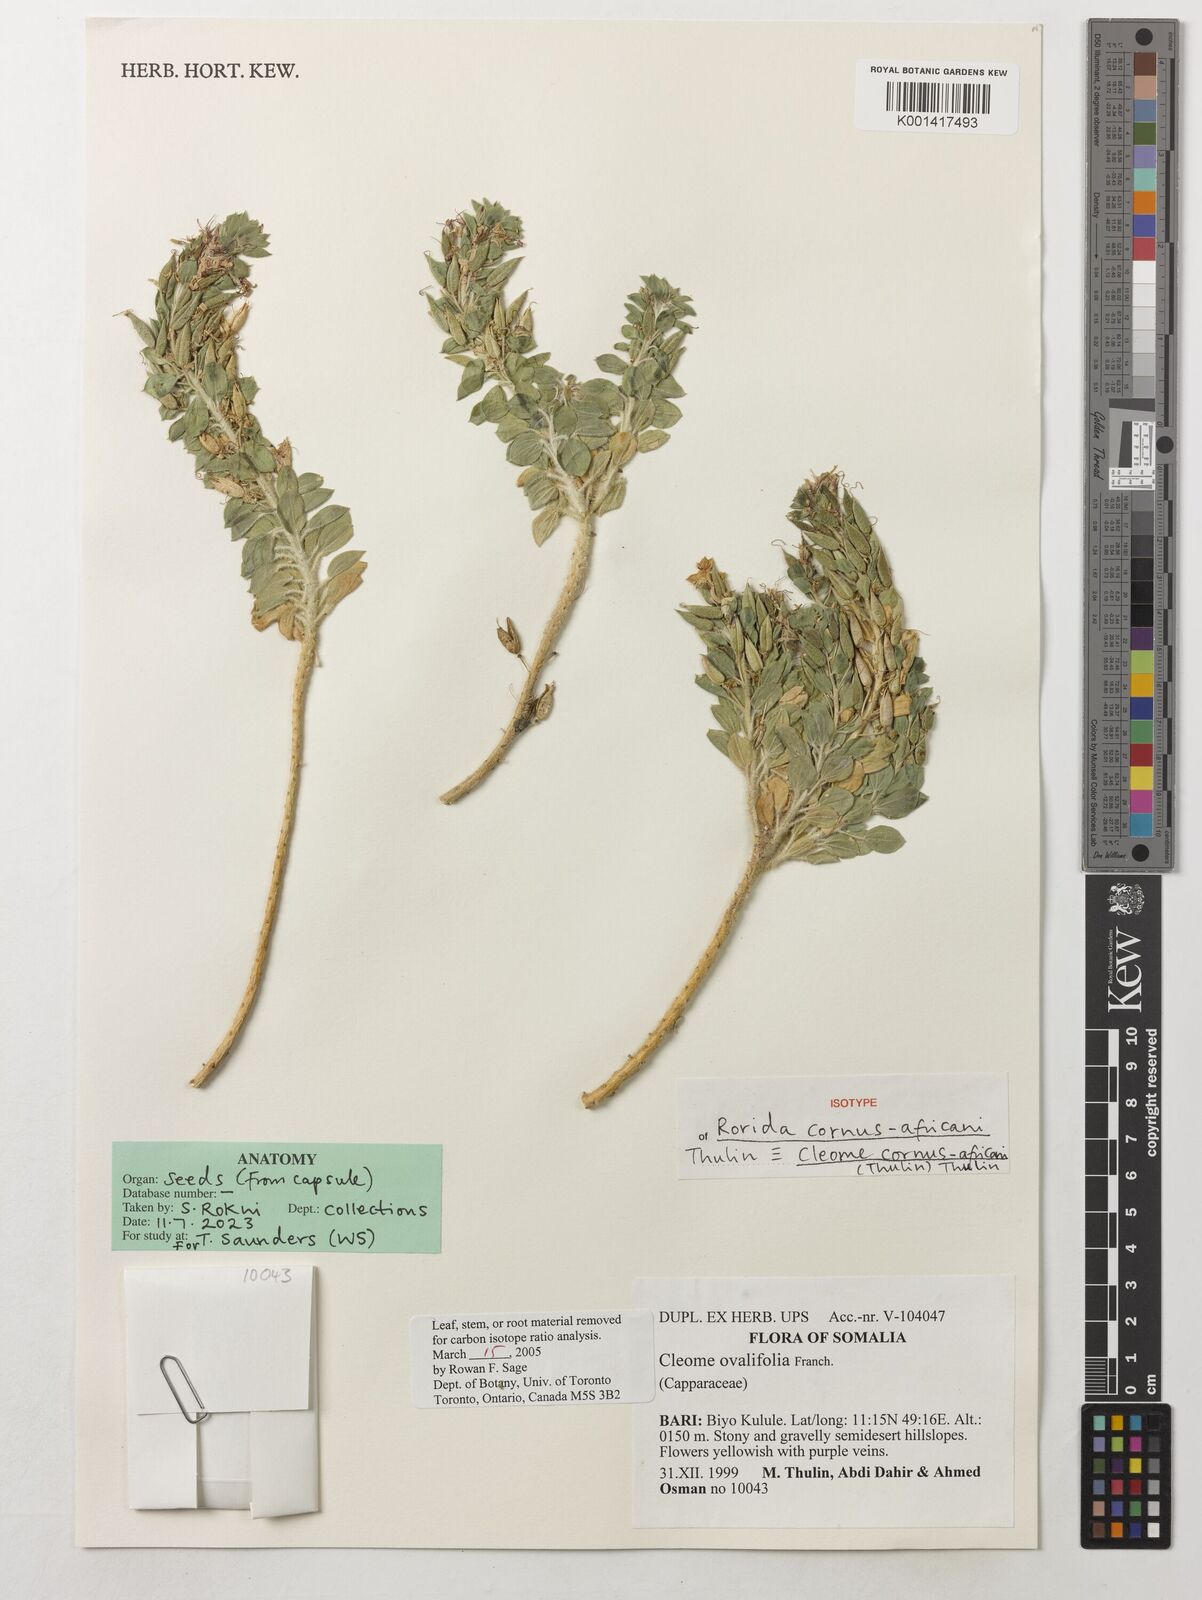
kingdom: Plantae
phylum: Tracheophyta
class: Magnoliopsida
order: Brassicales
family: Cleomaceae
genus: Cleome
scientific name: Cleome
